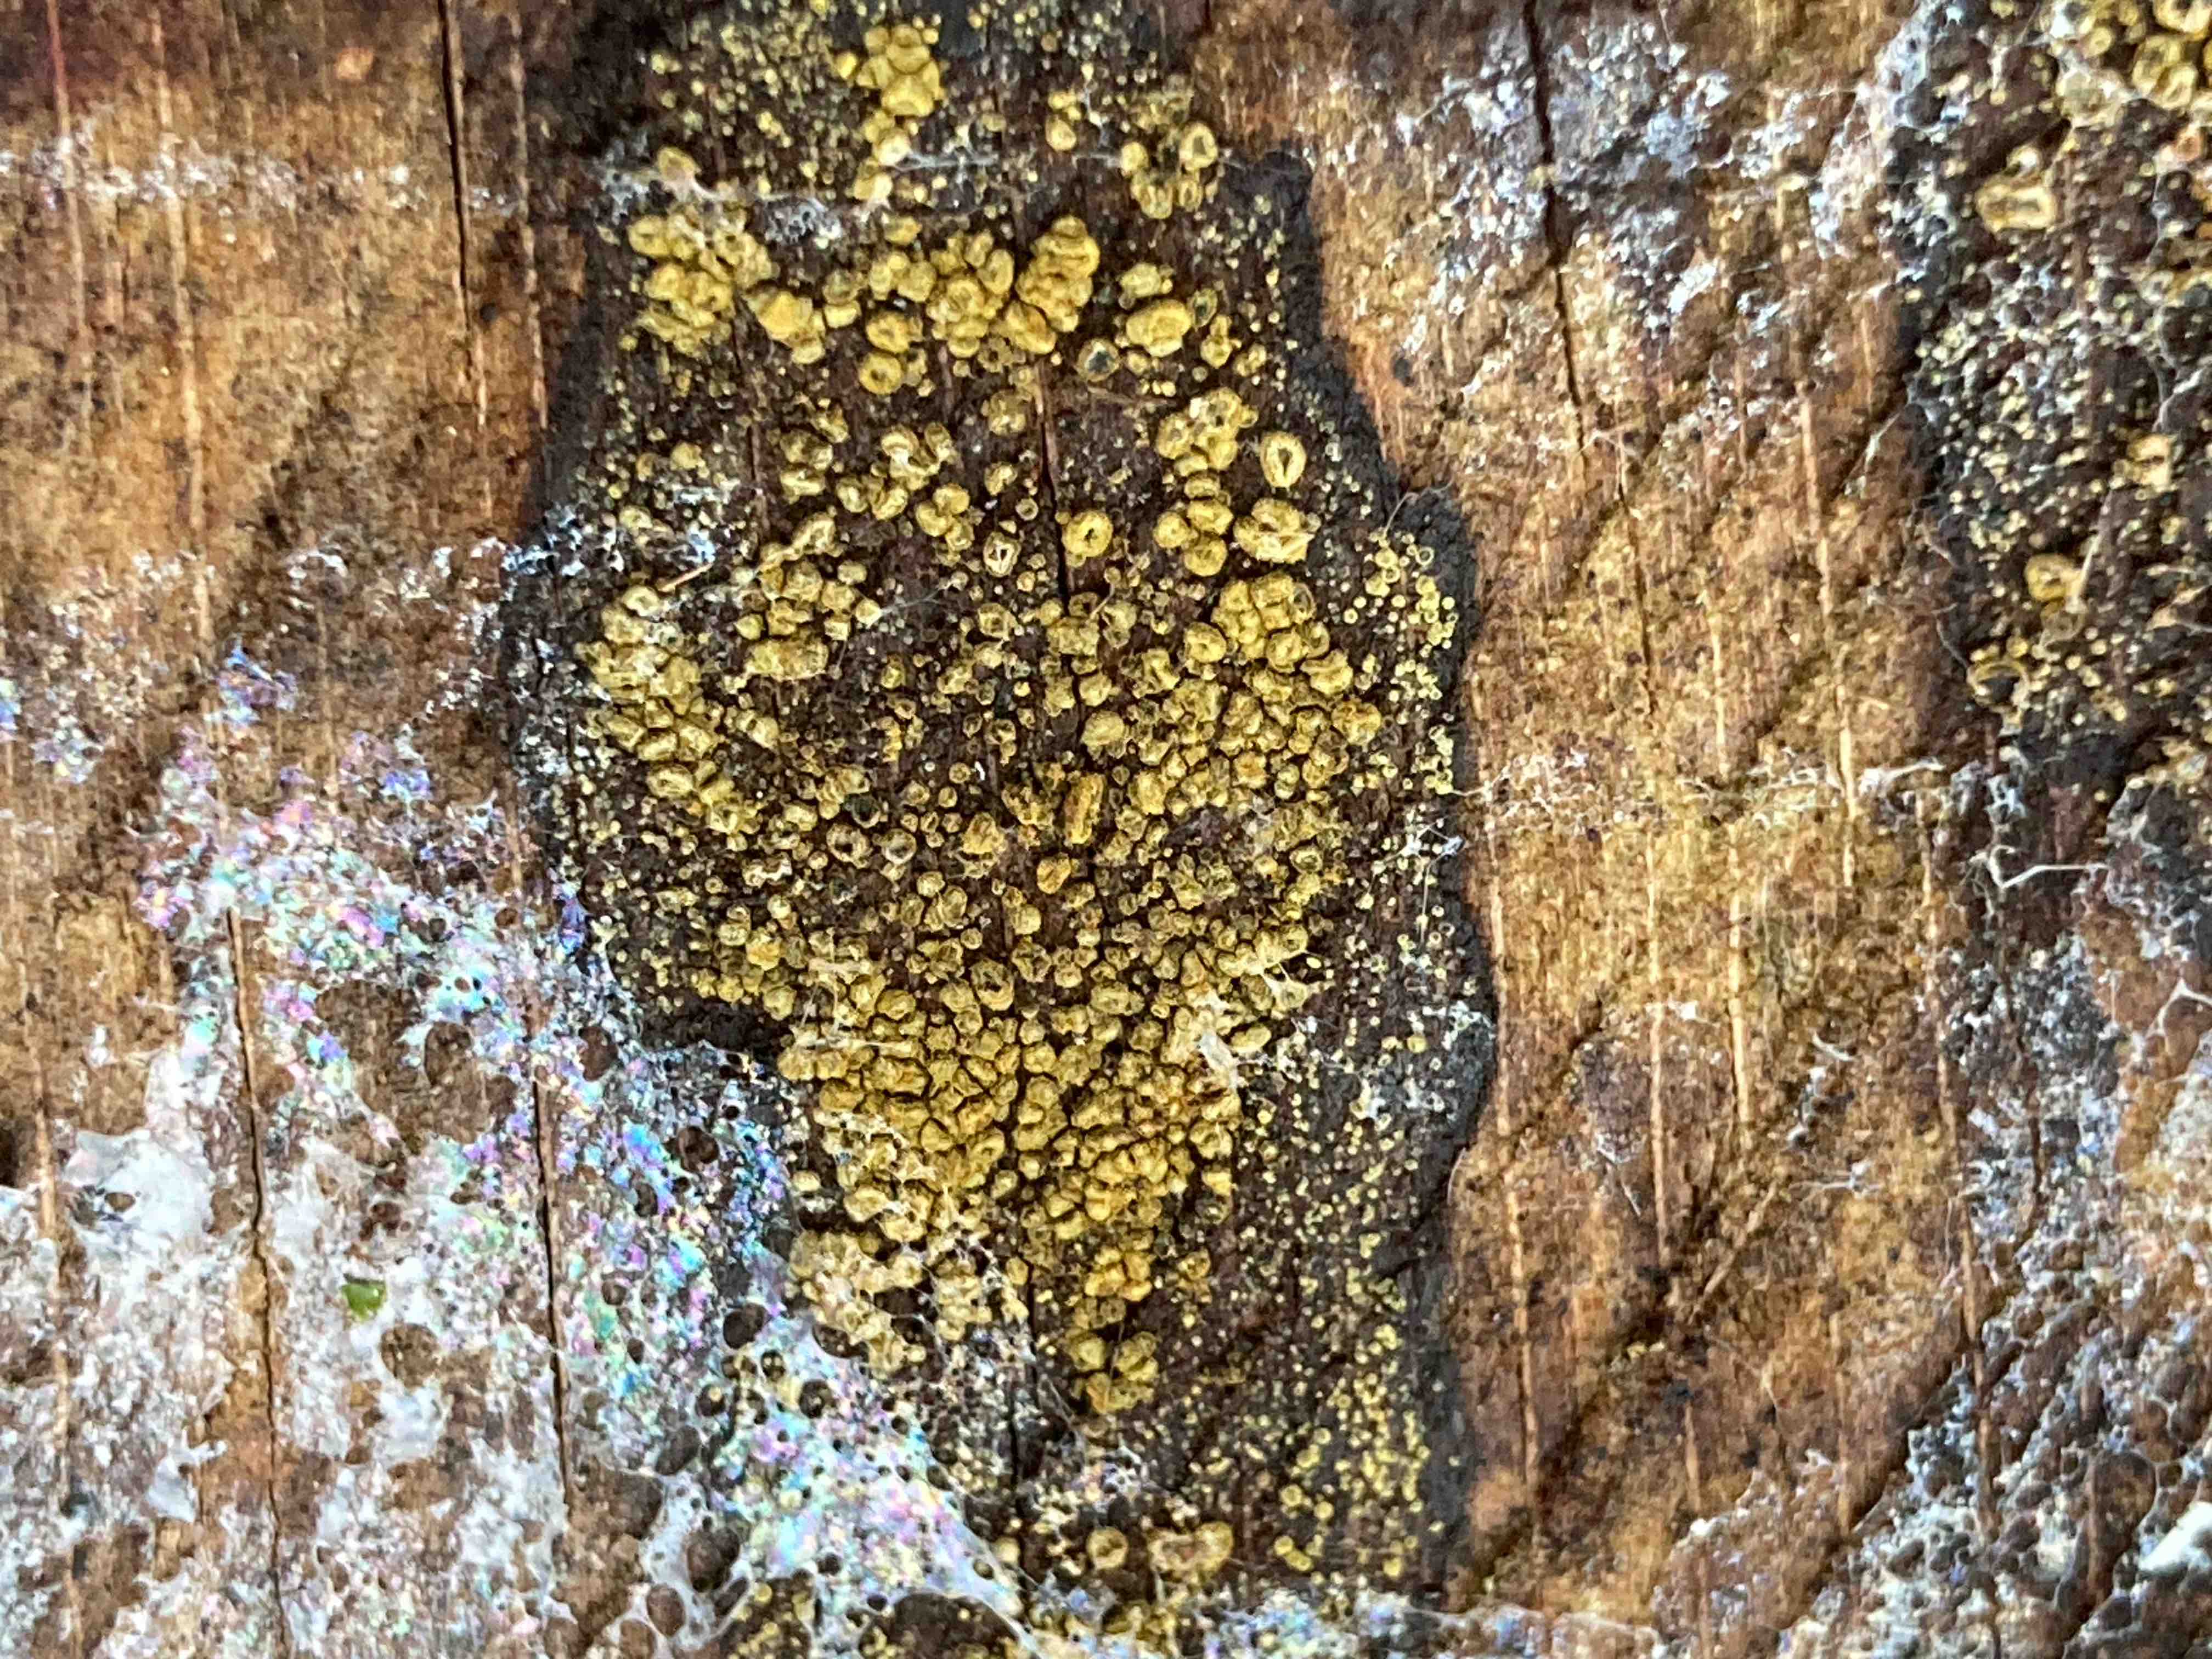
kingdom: Fungi
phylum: Ascomycota
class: Leotiomycetes
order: Helotiales
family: Lachnaceae
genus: Neodasyscypha
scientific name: Neodasyscypha cerina
